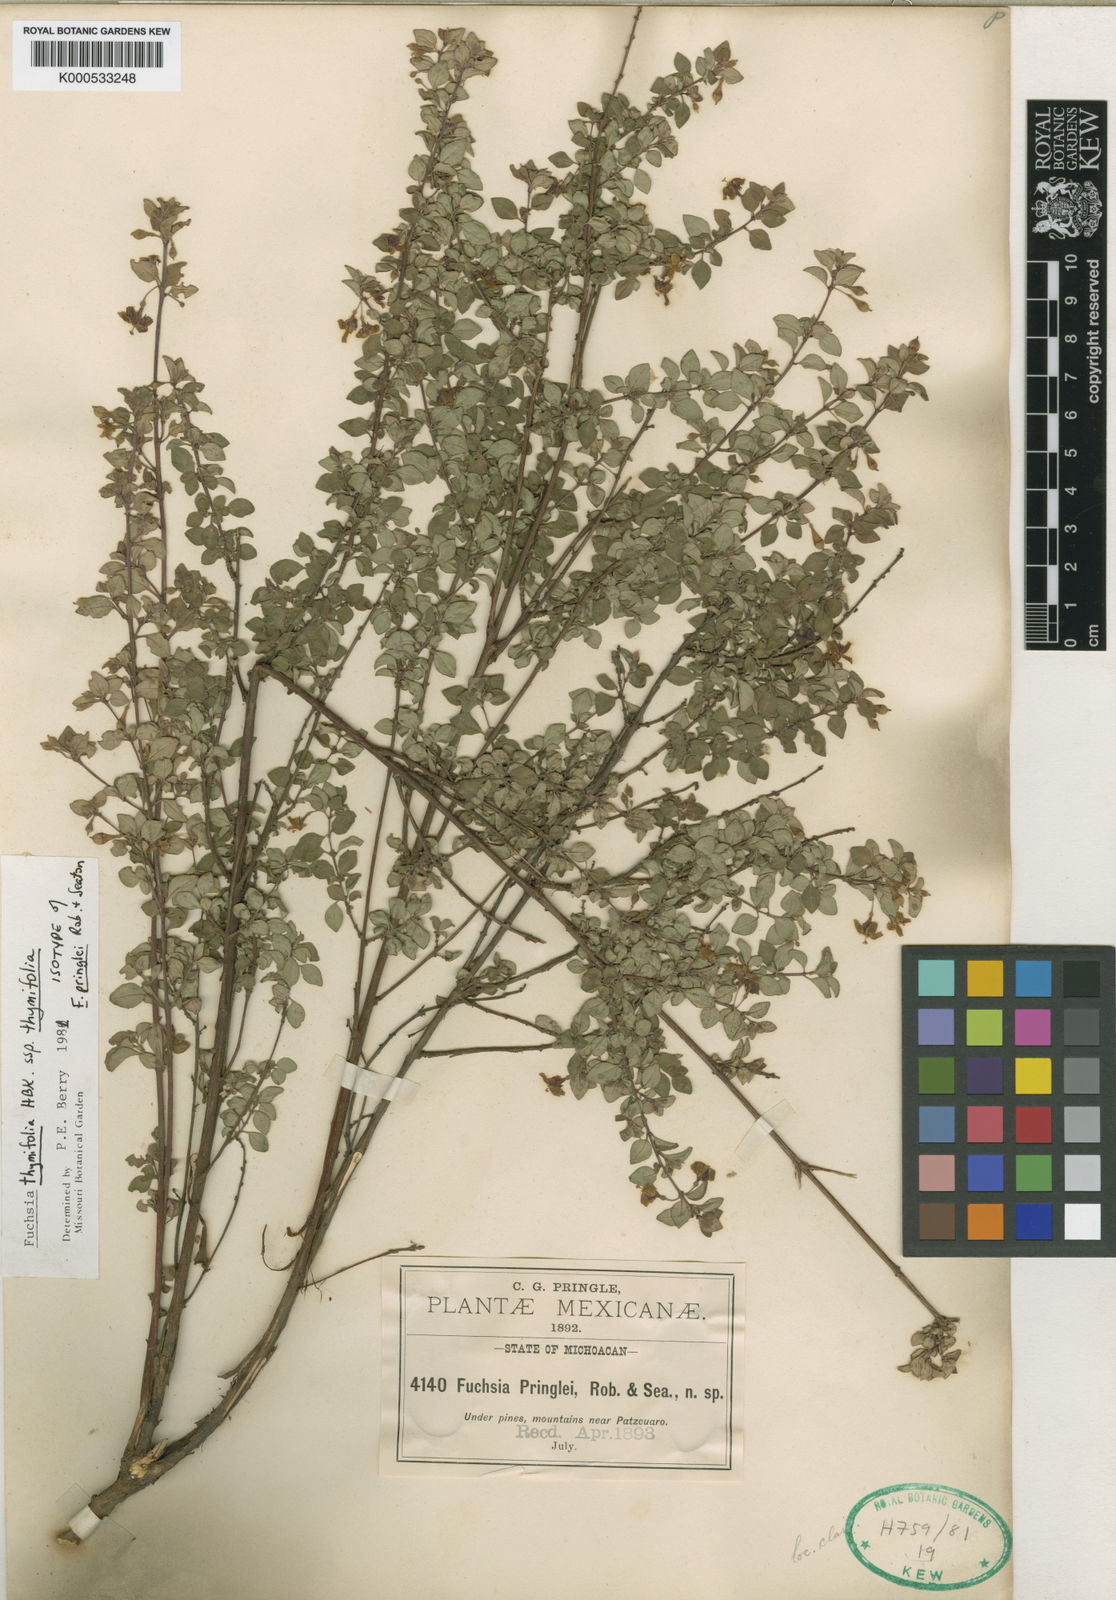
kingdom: Plantae
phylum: Tracheophyta
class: Magnoliopsida
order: Myrtales
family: Onagraceae
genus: Fuchsia
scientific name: Fuchsia thymifolia
